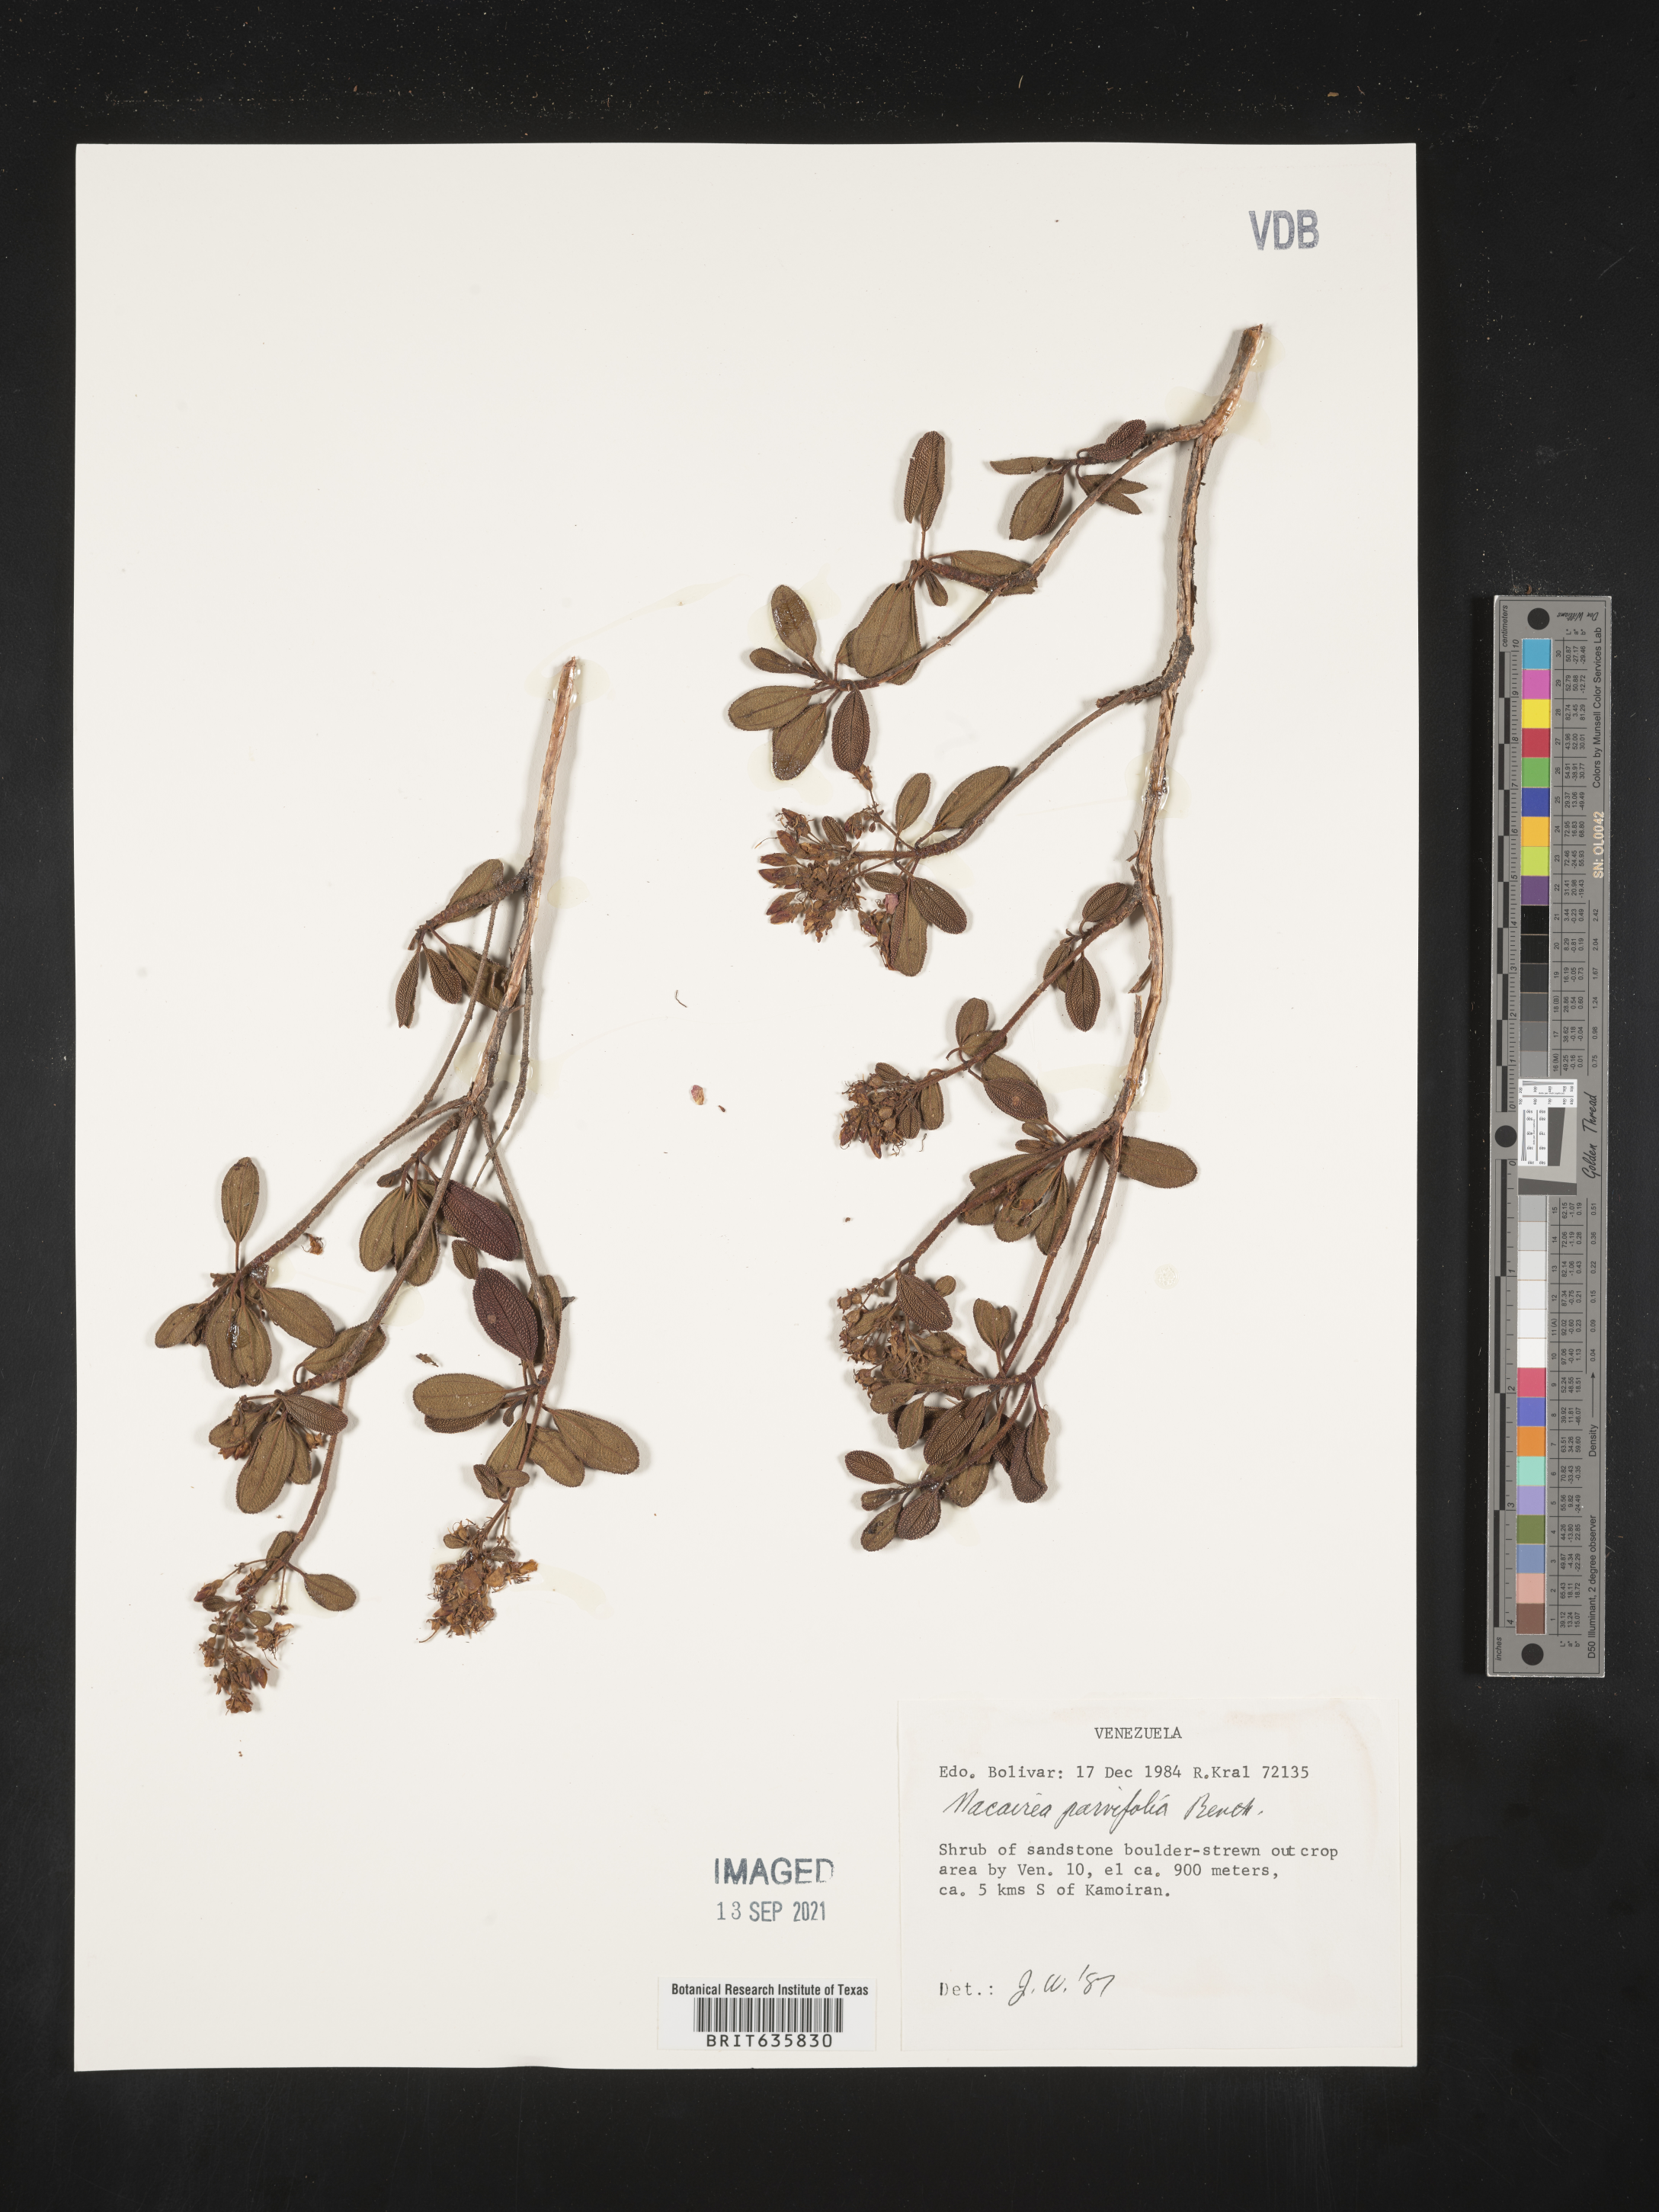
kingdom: Plantae
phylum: Tracheophyta
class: Magnoliopsida
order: Myrtales
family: Melastomataceae
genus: Macairea
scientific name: Macairea
